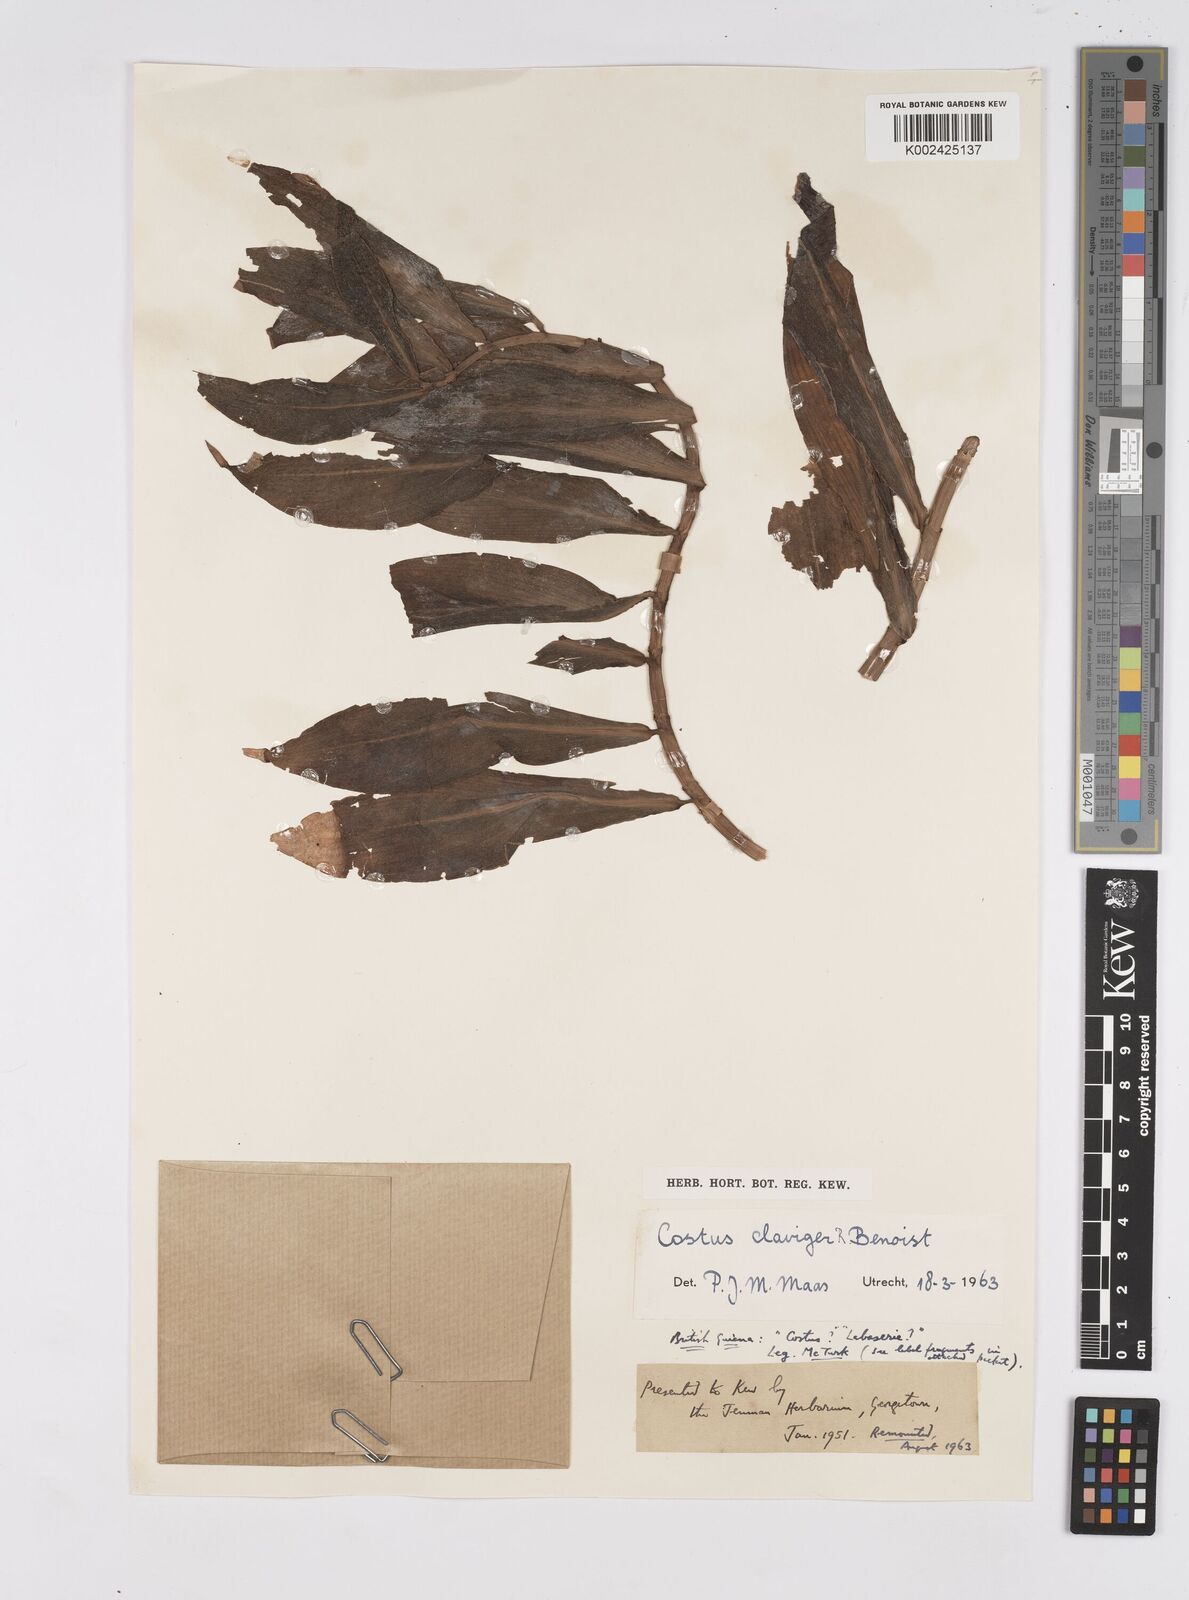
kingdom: Plantae
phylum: Tracheophyta
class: Liliopsida
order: Zingiberales
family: Costaceae
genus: Costus
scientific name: Costus claviger
